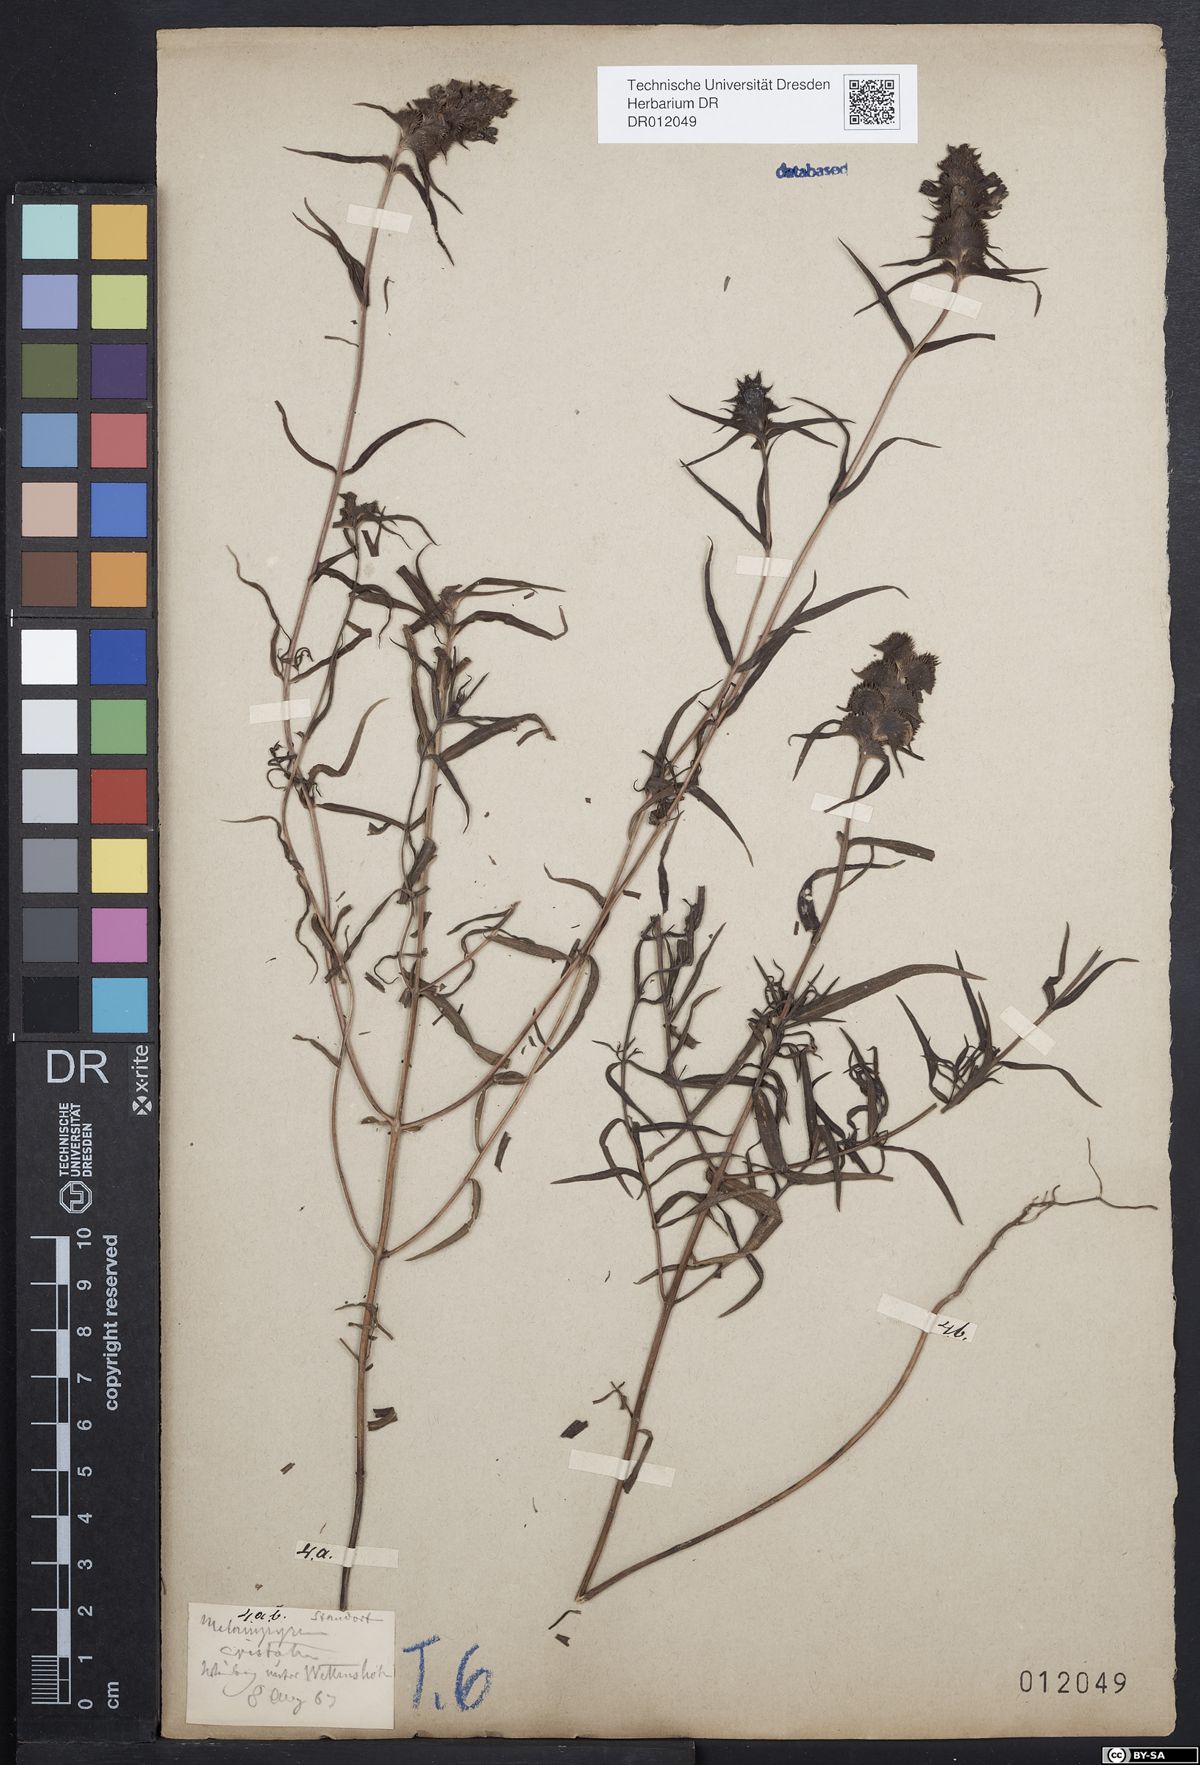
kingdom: Plantae
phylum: Tracheophyta
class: Magnoliopsida
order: Lamiales
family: Orobanchaceae
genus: Melampyrum
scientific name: Melampyrum cristatum
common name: Crested cow-wheat
